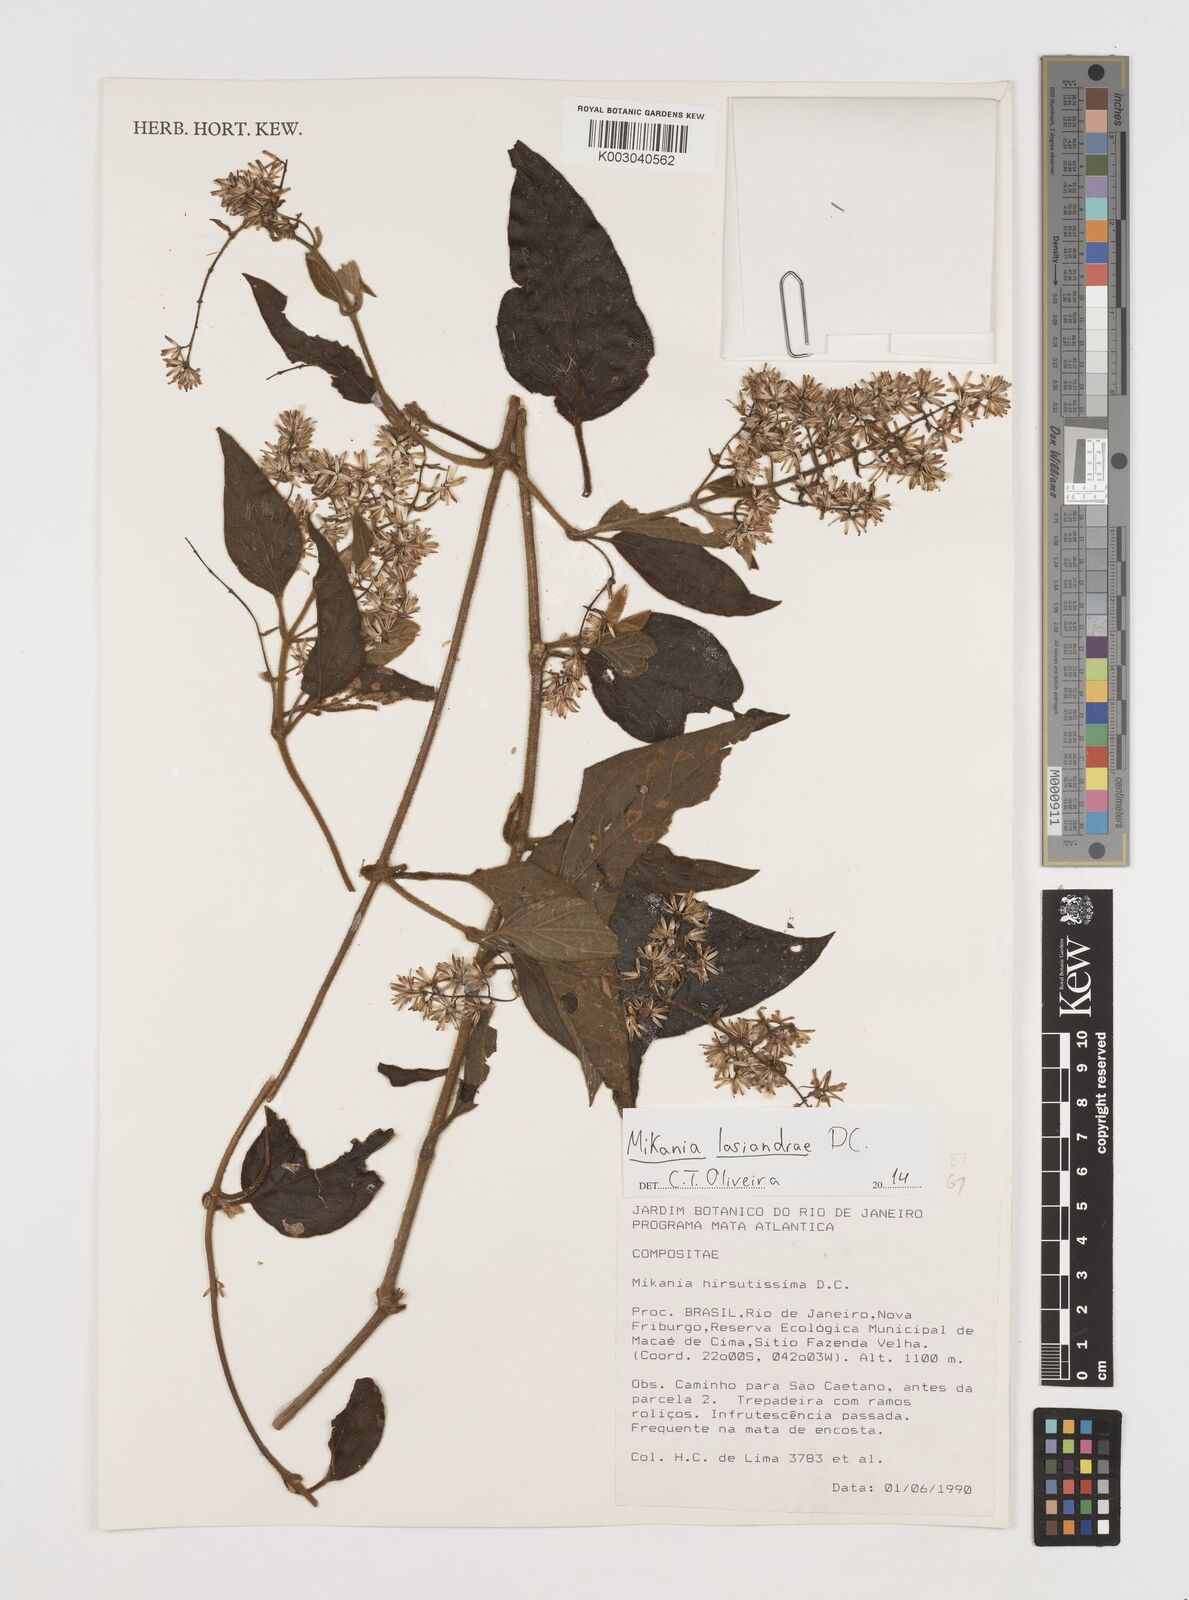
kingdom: Plantae
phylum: Tracheophyta
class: Magnoliopsida
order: Asterales
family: Asteraceae
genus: Mikania
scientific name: Mikania lasiandrae
